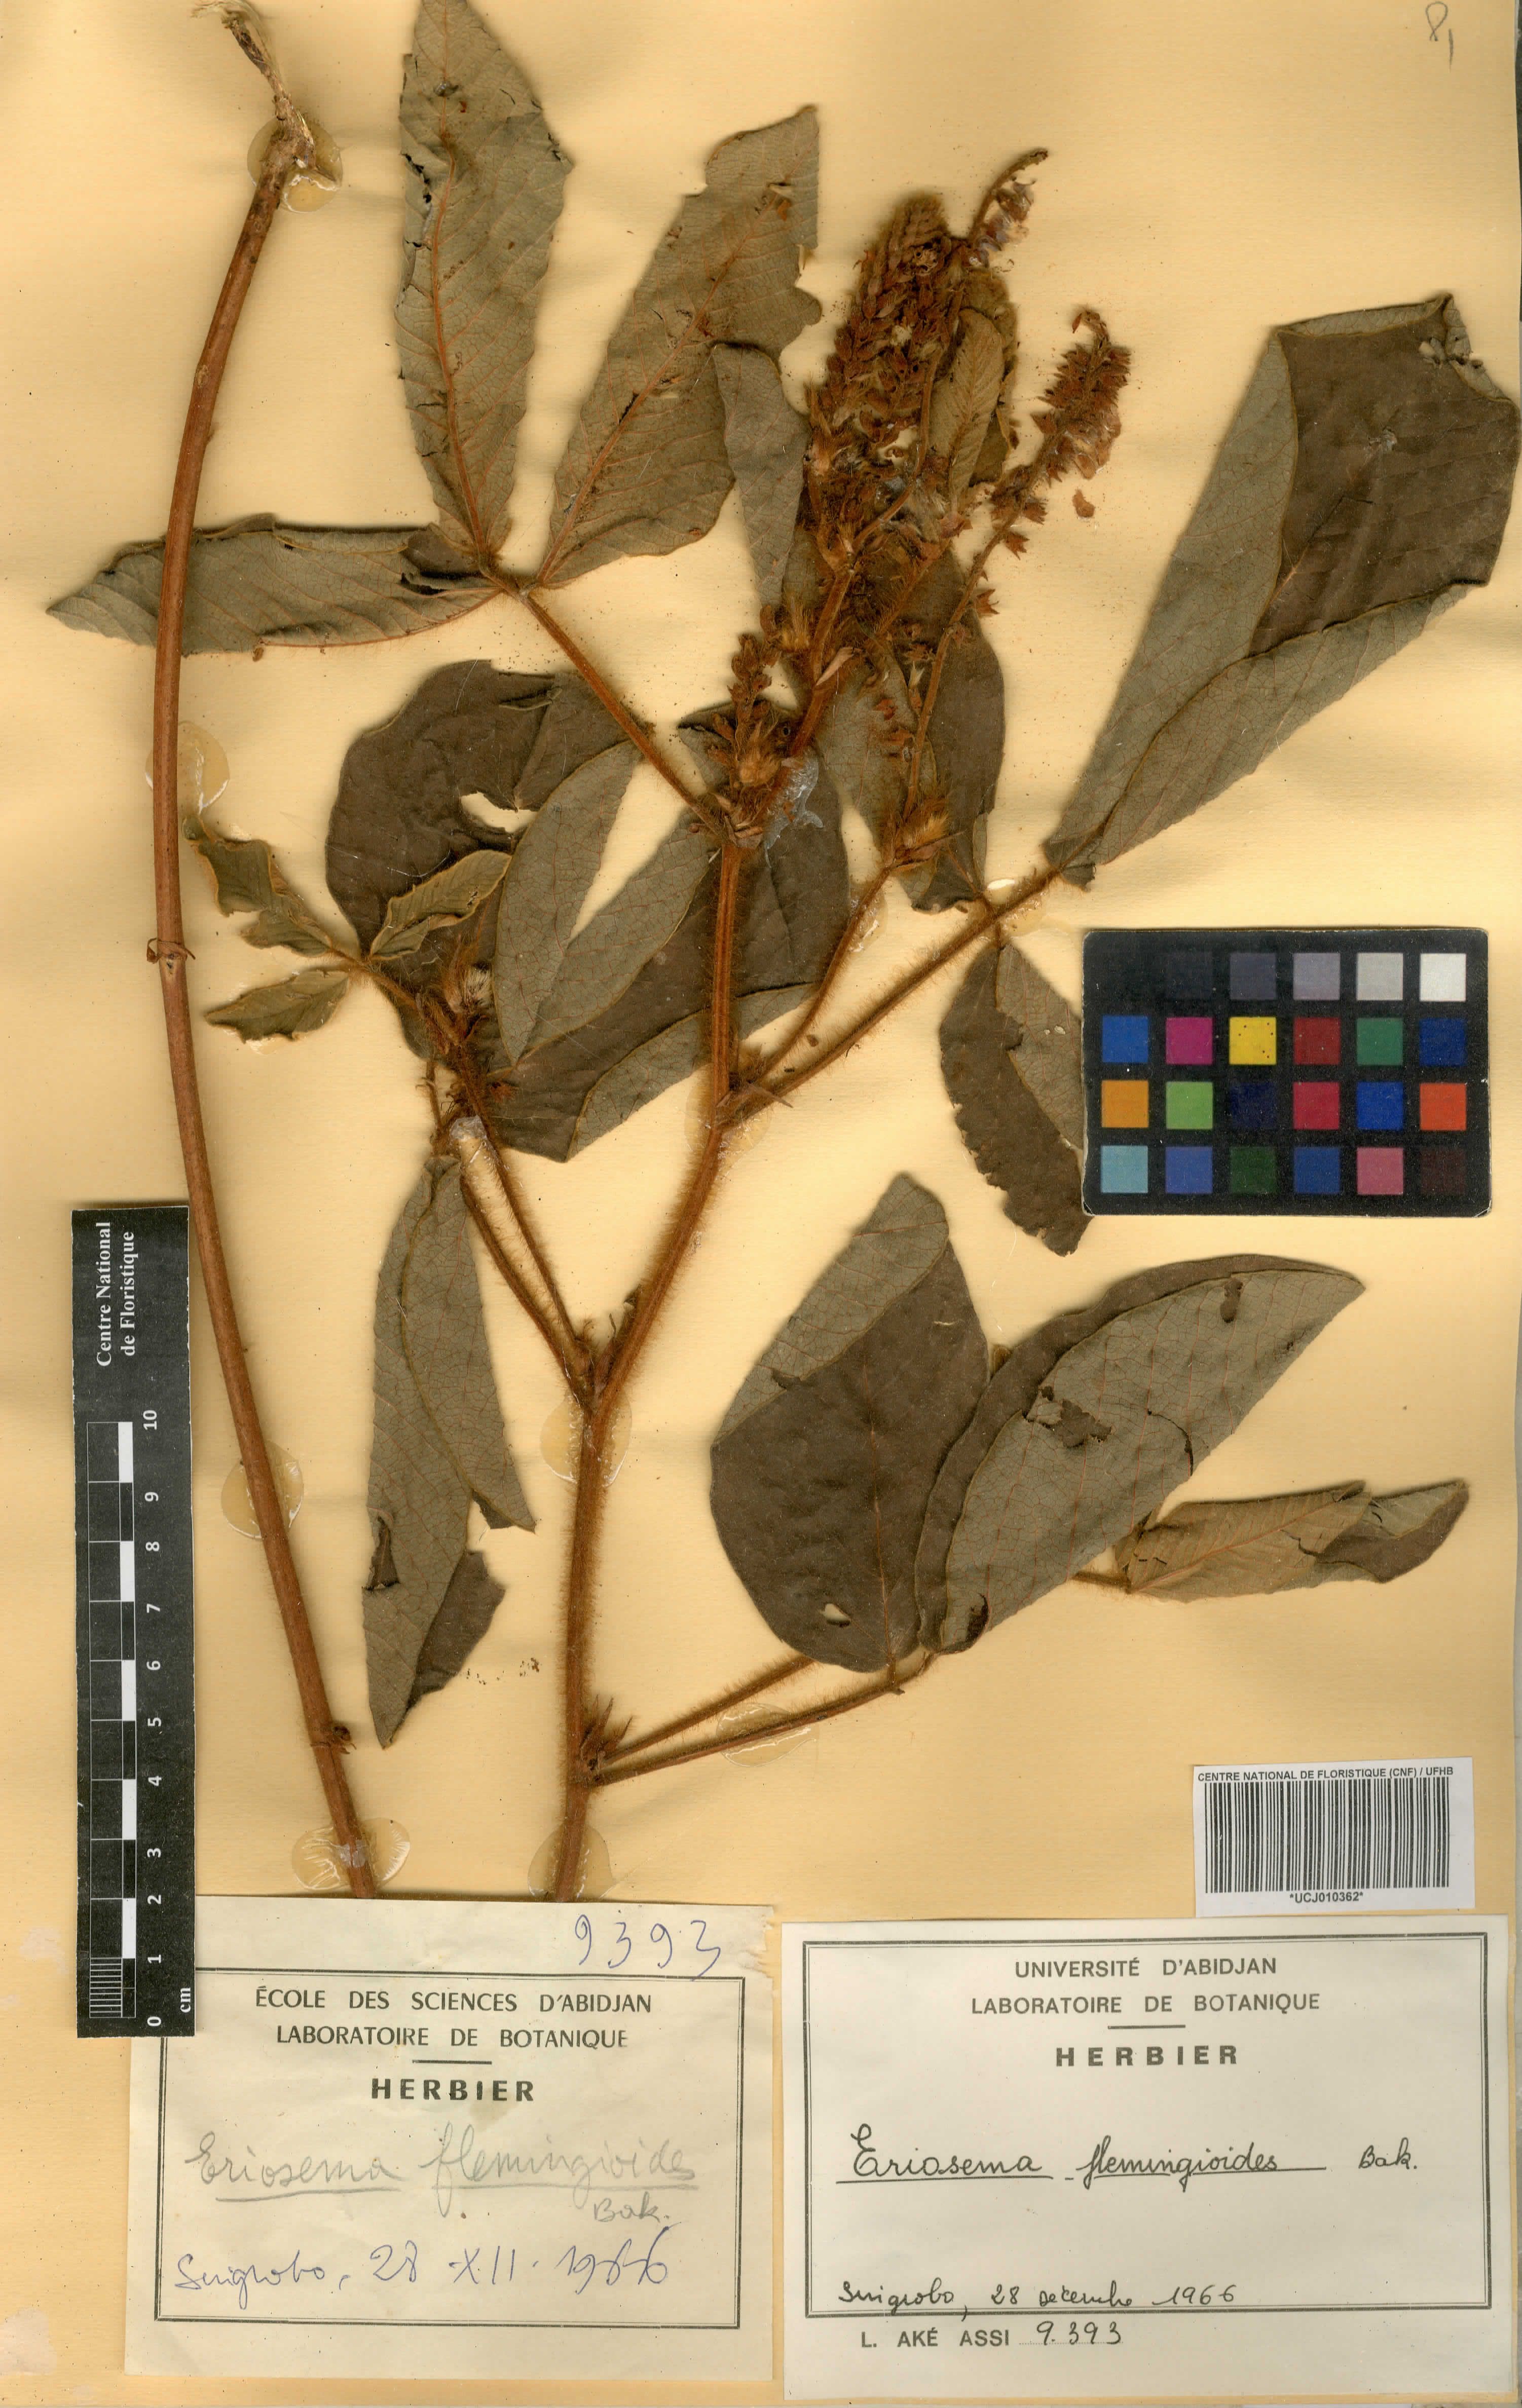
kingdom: Plantae
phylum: Tracheophyta
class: Magnoliopsida
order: Fabales
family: Fabaceae
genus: Eriosema
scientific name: Eriosema flemingioides
